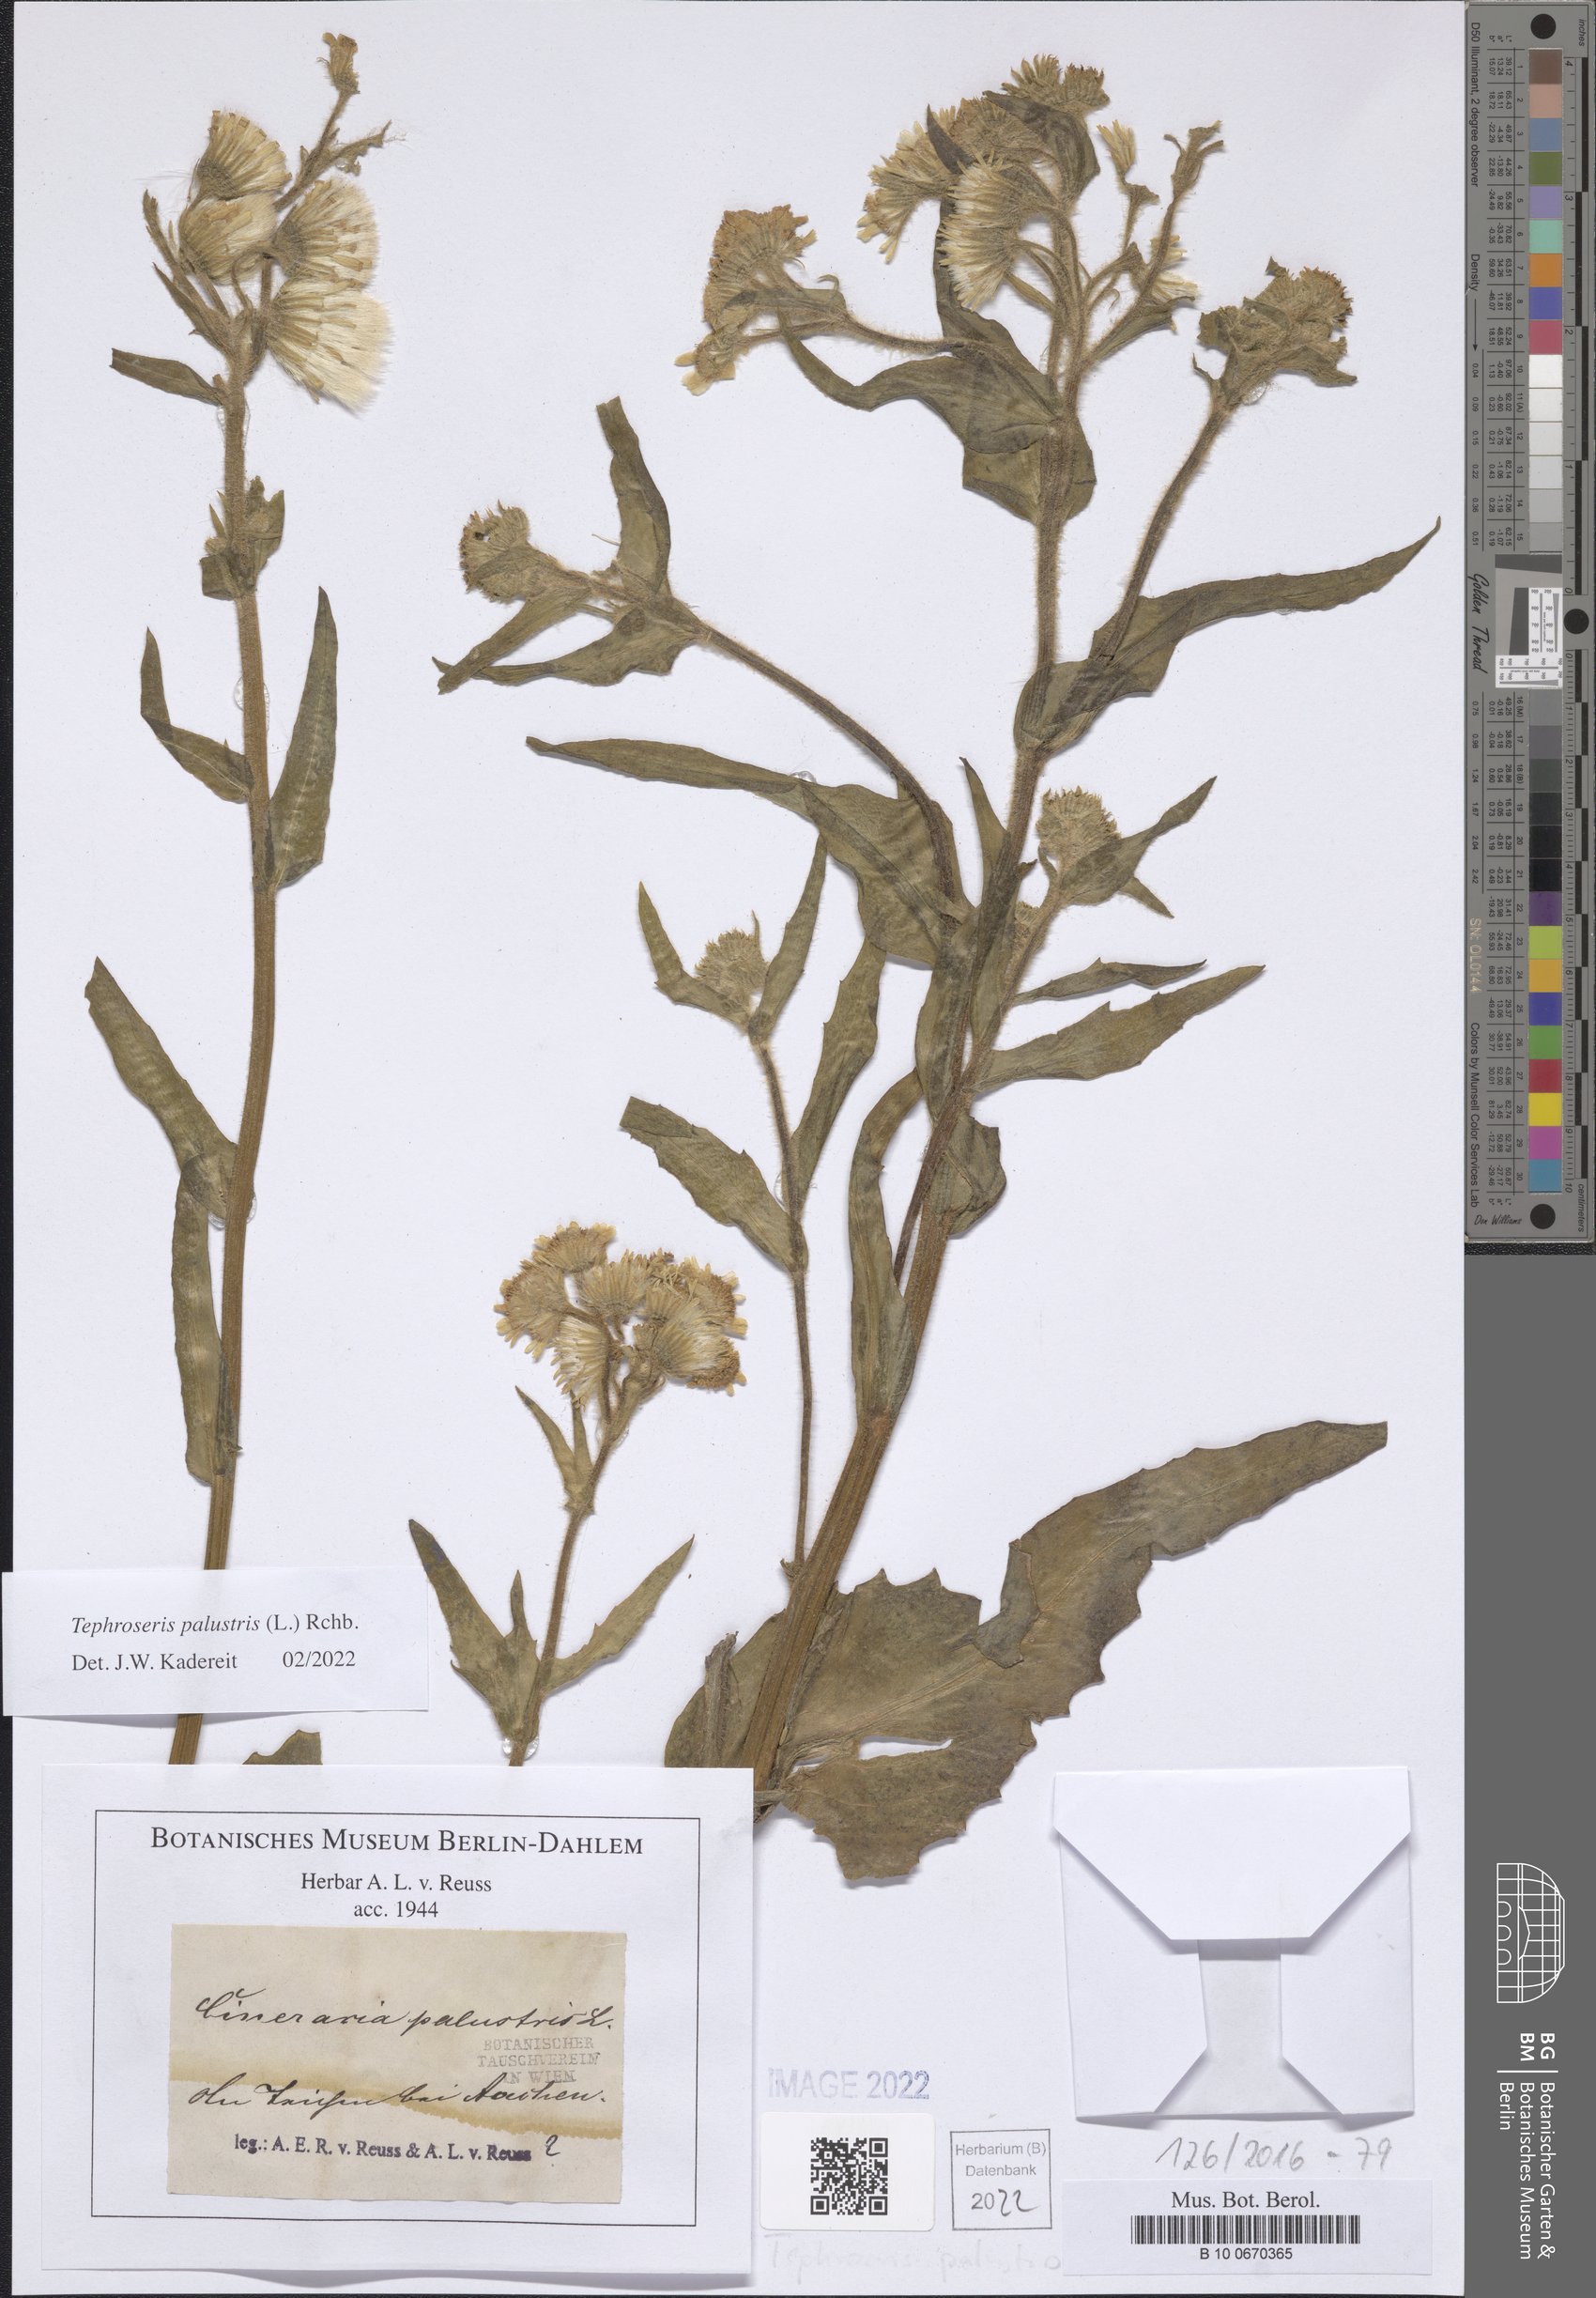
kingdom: Plantae
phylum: Tracheophyta
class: Magnoliopsida
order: Asterales
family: Asteraceae
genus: Tephroseris
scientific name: Tephroseris palustris
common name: Marsh fleawort
